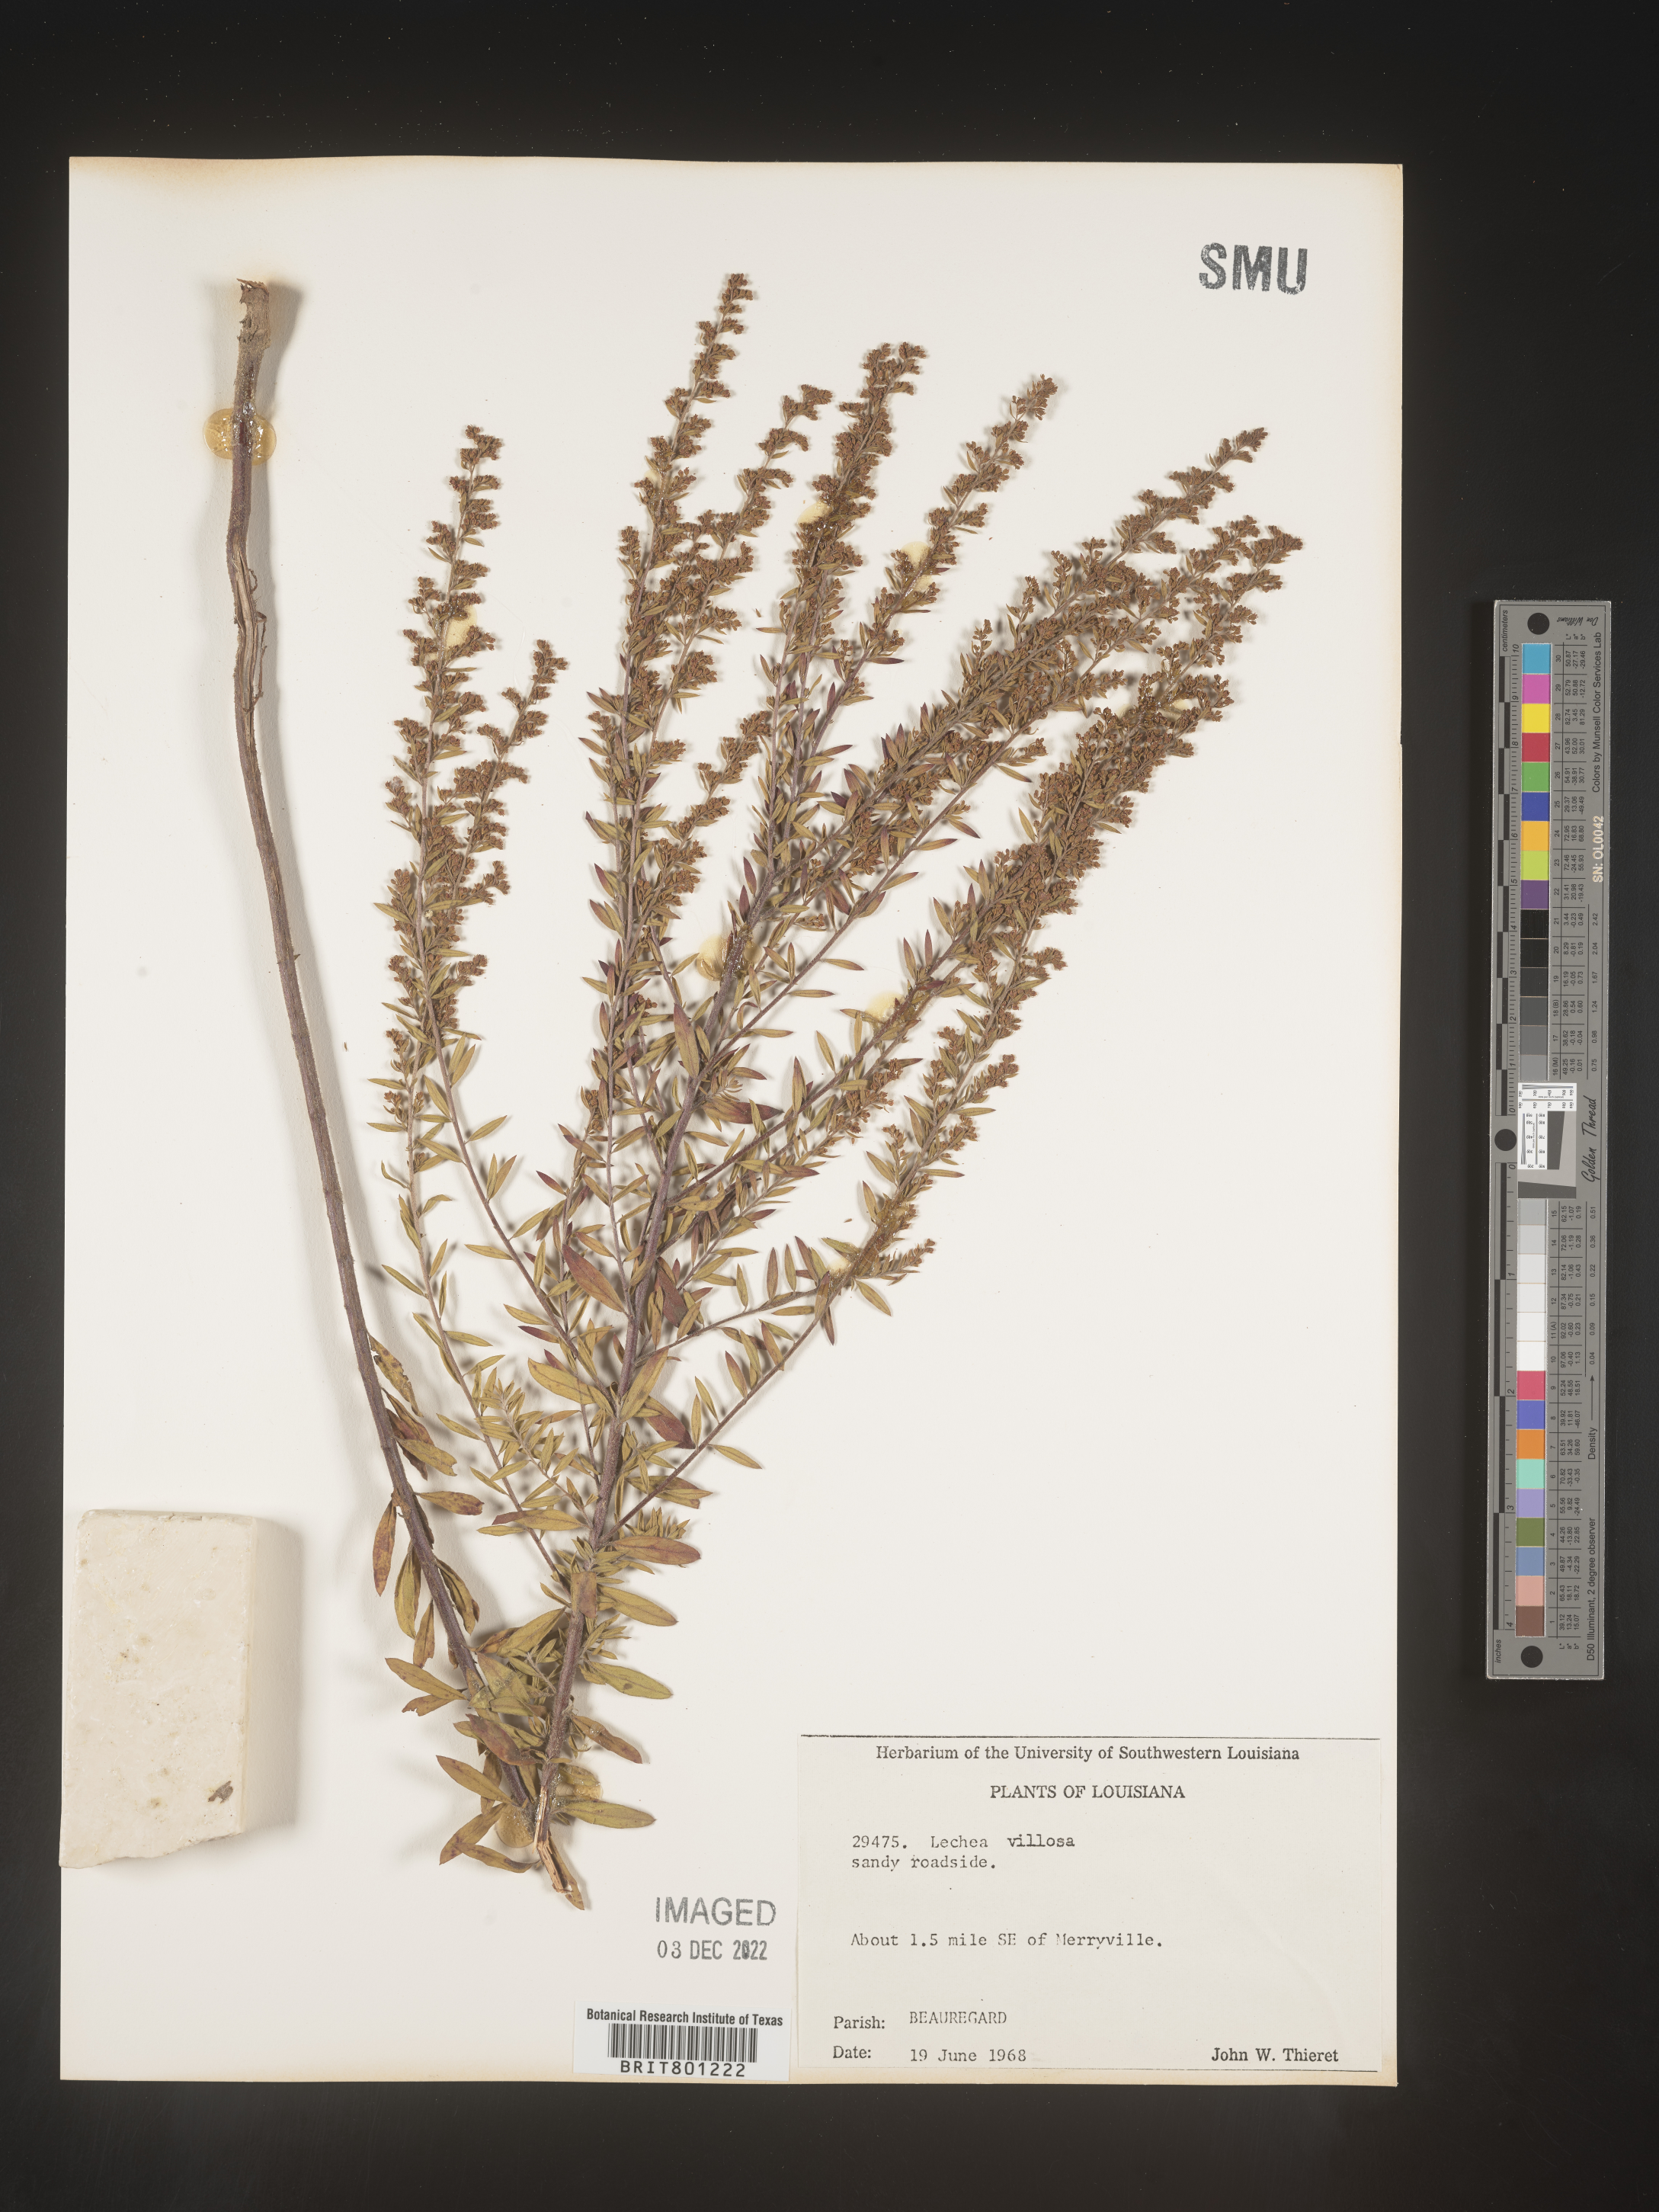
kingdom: Plantae
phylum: Tracheophyta
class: Magnoliopsida
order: Malvales
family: Cistaceae
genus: Lechea
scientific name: Lechea mucronata
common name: Hairy pinweed
